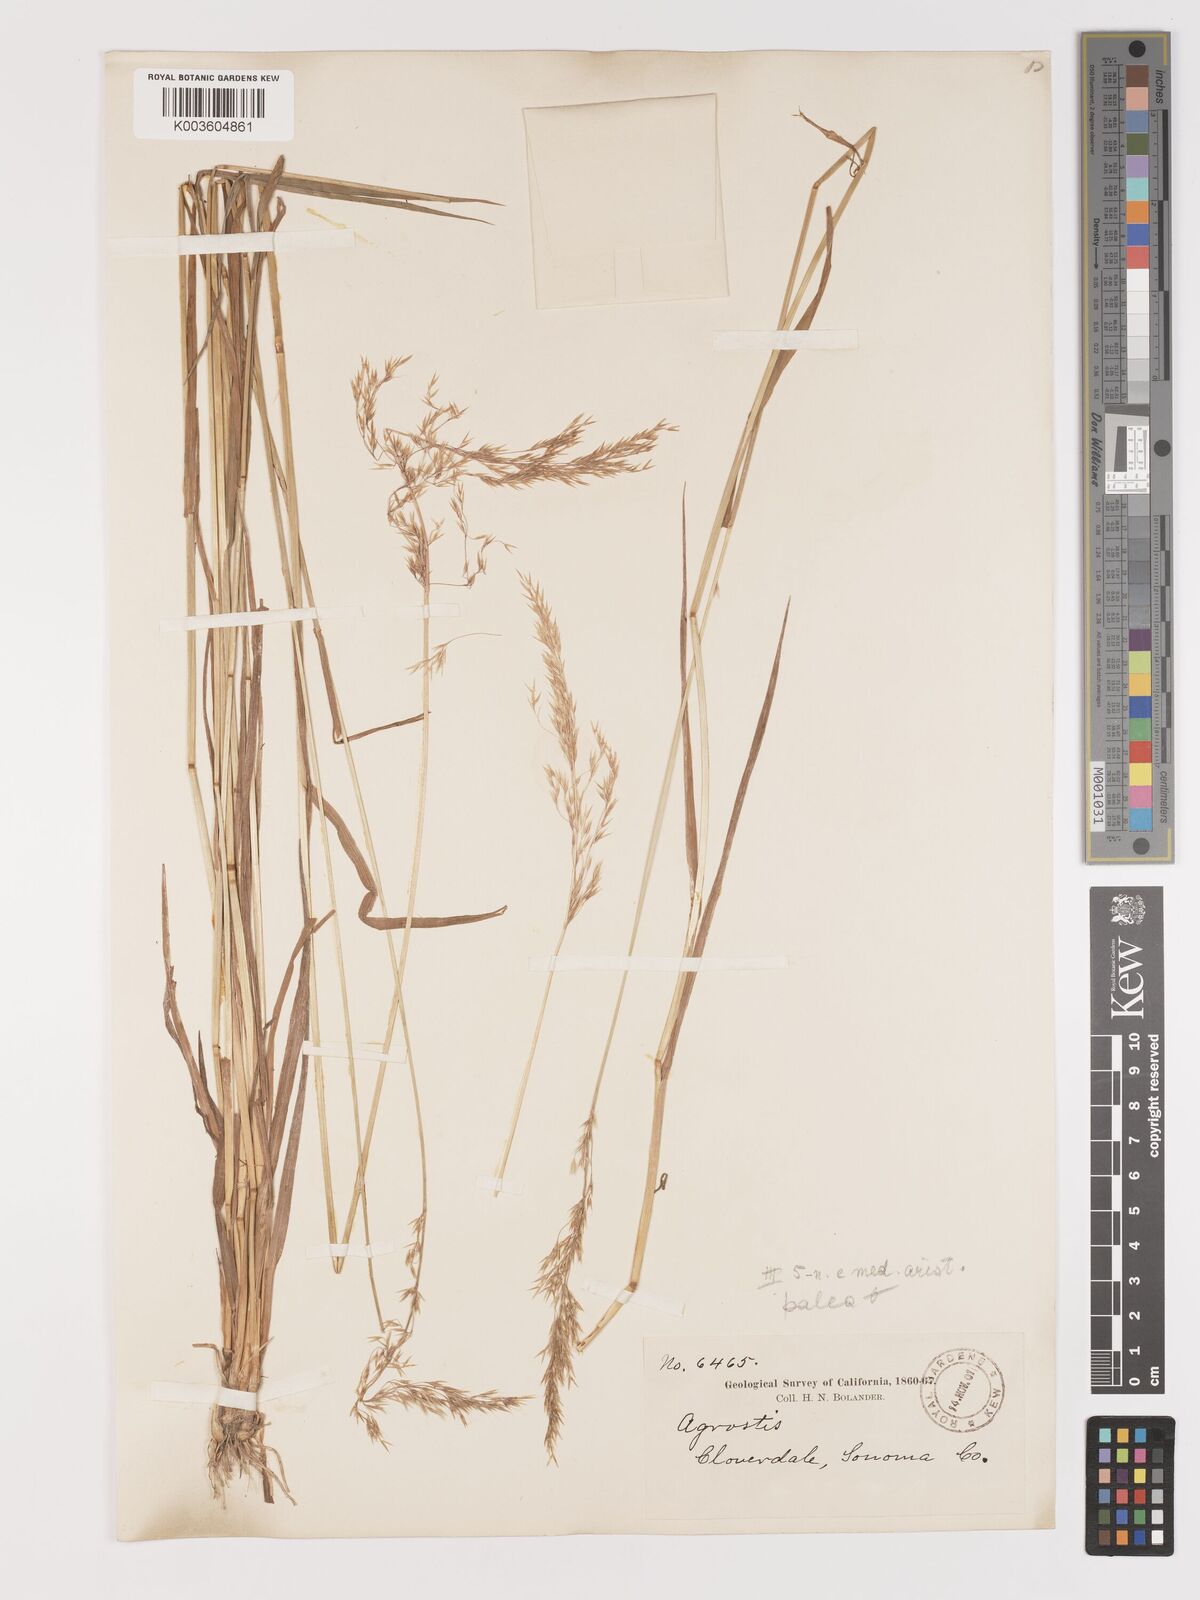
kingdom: Plantae
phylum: Tracheophyta
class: Liliopsida
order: Poales
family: Poaceae
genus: Agrostis
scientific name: Agrostis
